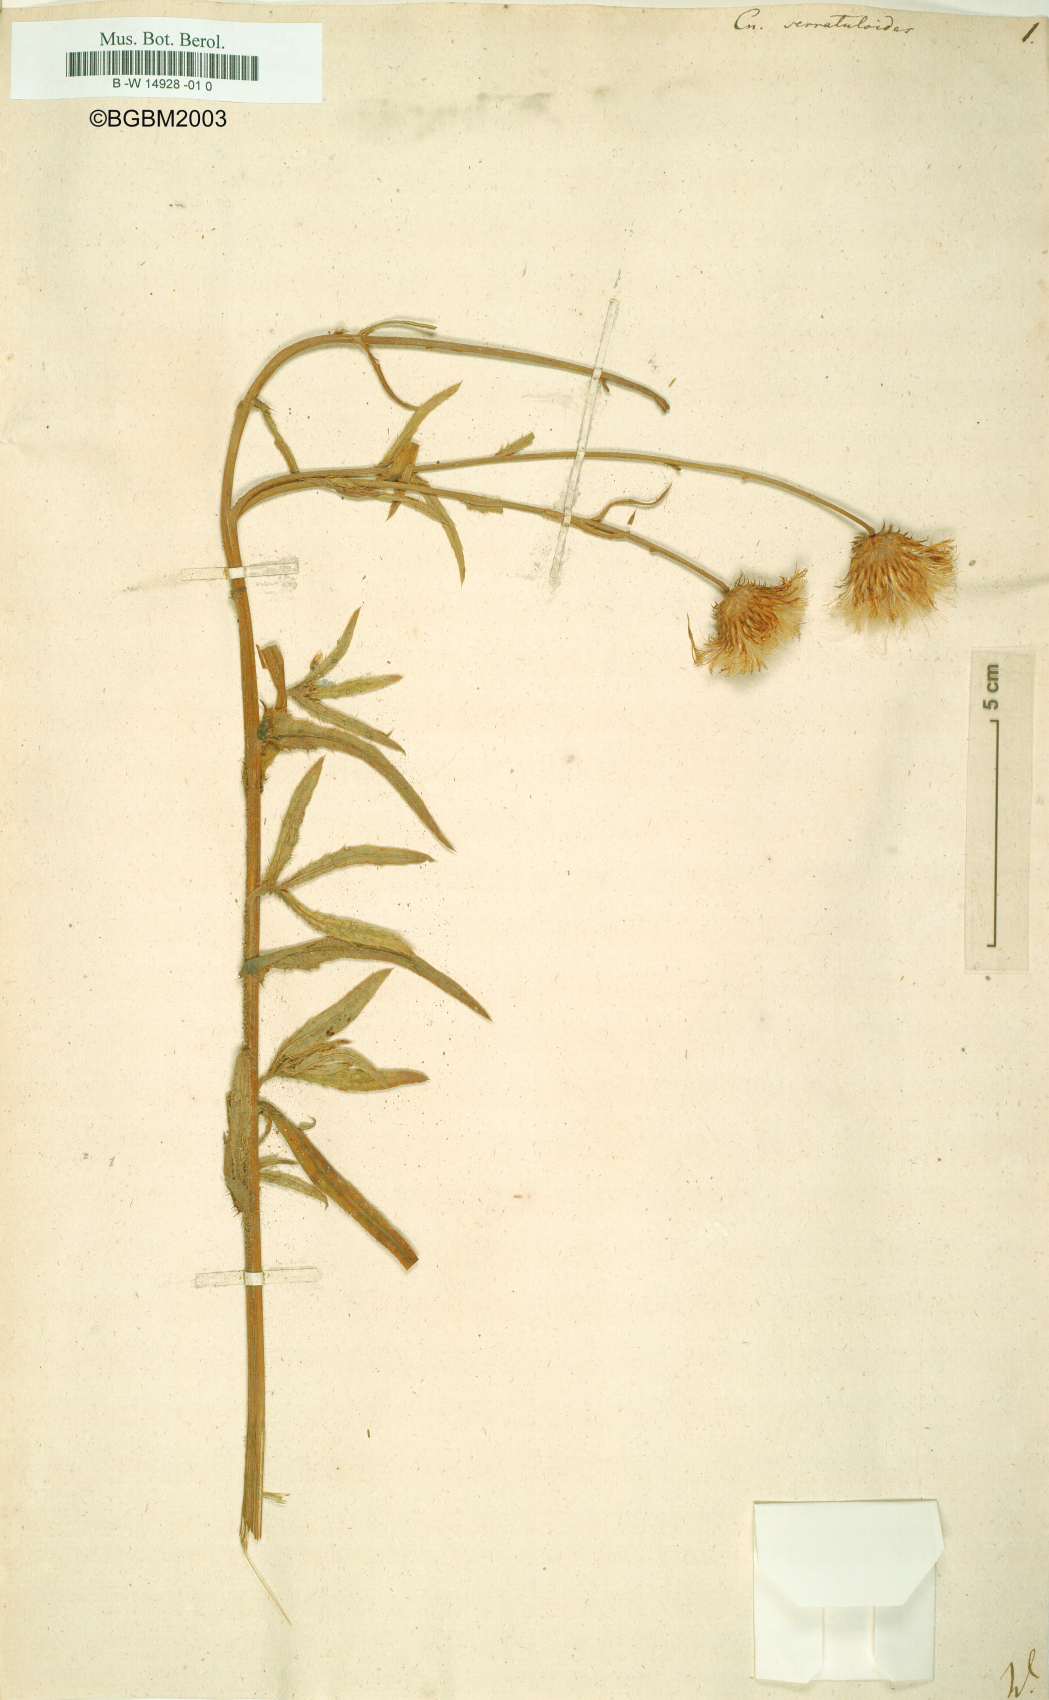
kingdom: Plantae
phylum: Tracheophyta
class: Magnoliopsida
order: Asterales
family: Asteraceae
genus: Cirsium
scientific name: Cirsium Cnicus serratuloides
